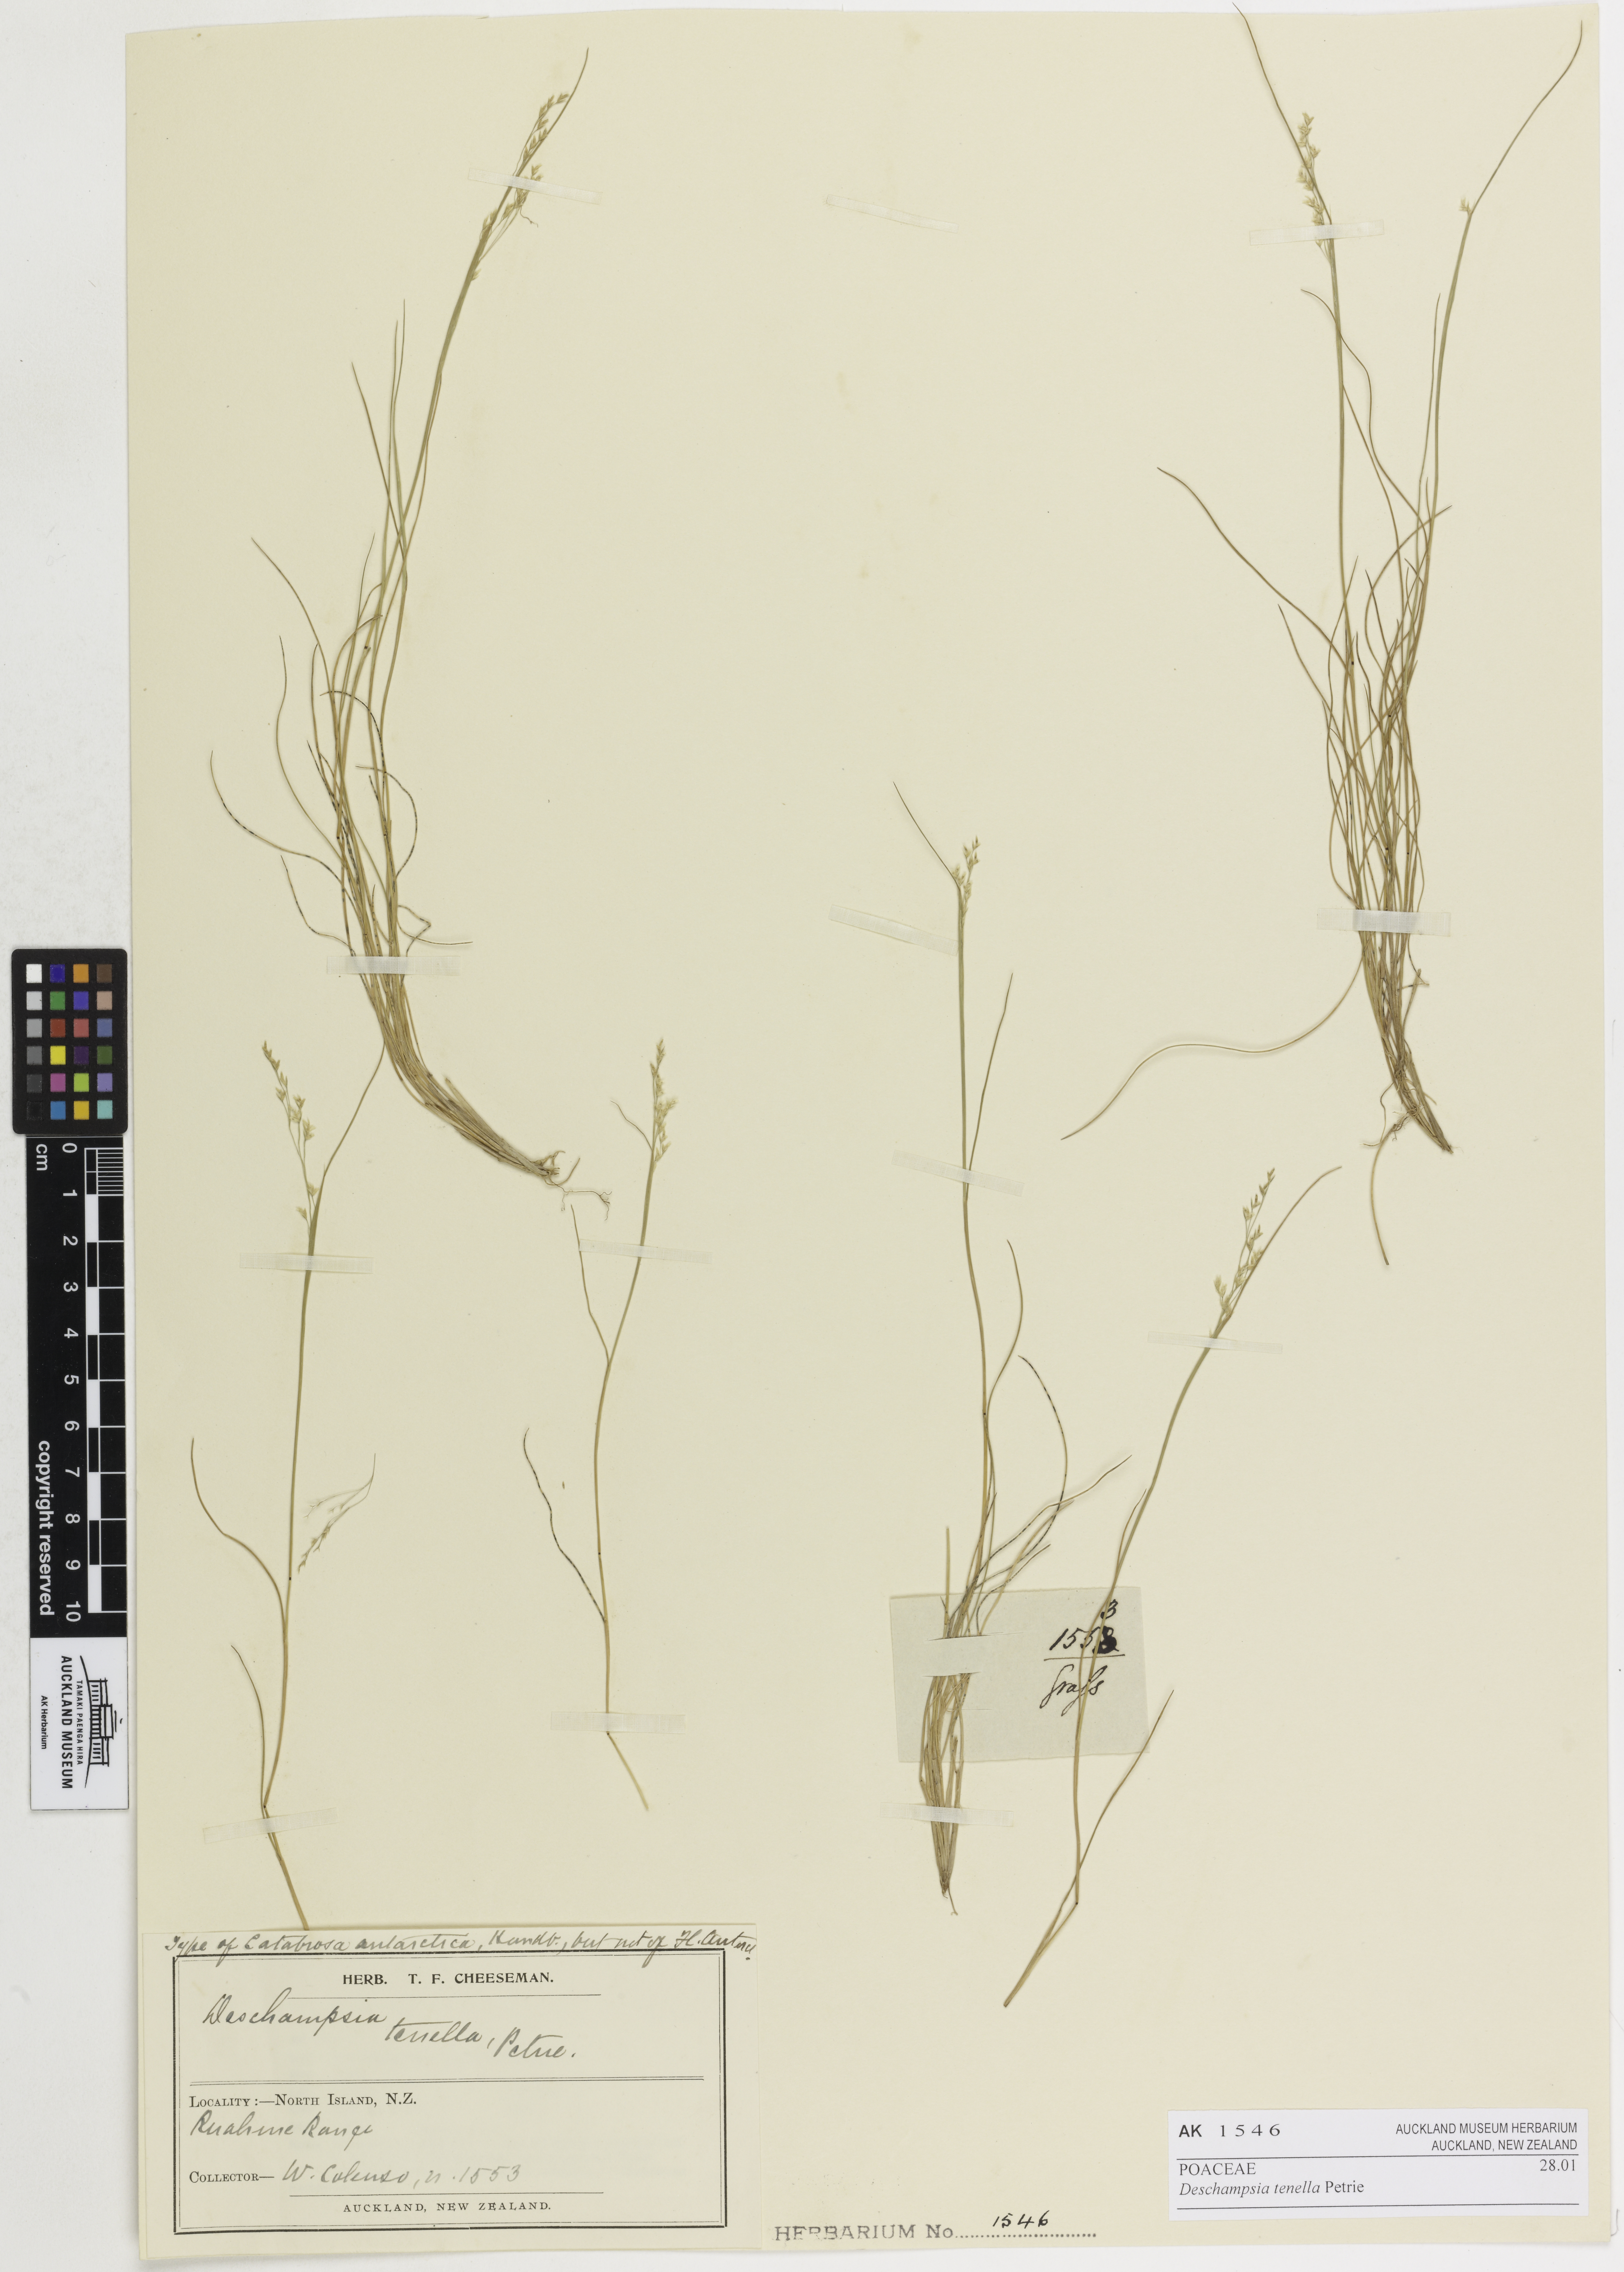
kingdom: Plantae
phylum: Tracheophyta
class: Liliopsida
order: Poales
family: Poaceae
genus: Deschampsia
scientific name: Deschampsia tenella
